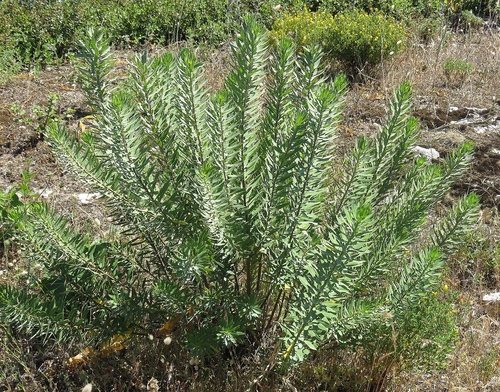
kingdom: Plantae
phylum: Tracheophyta
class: Magnoliopsida
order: Malpighiales
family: Euphorbiaceae
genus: Euphorbia
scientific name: Euphorbia characias
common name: Mediterranean spurge
